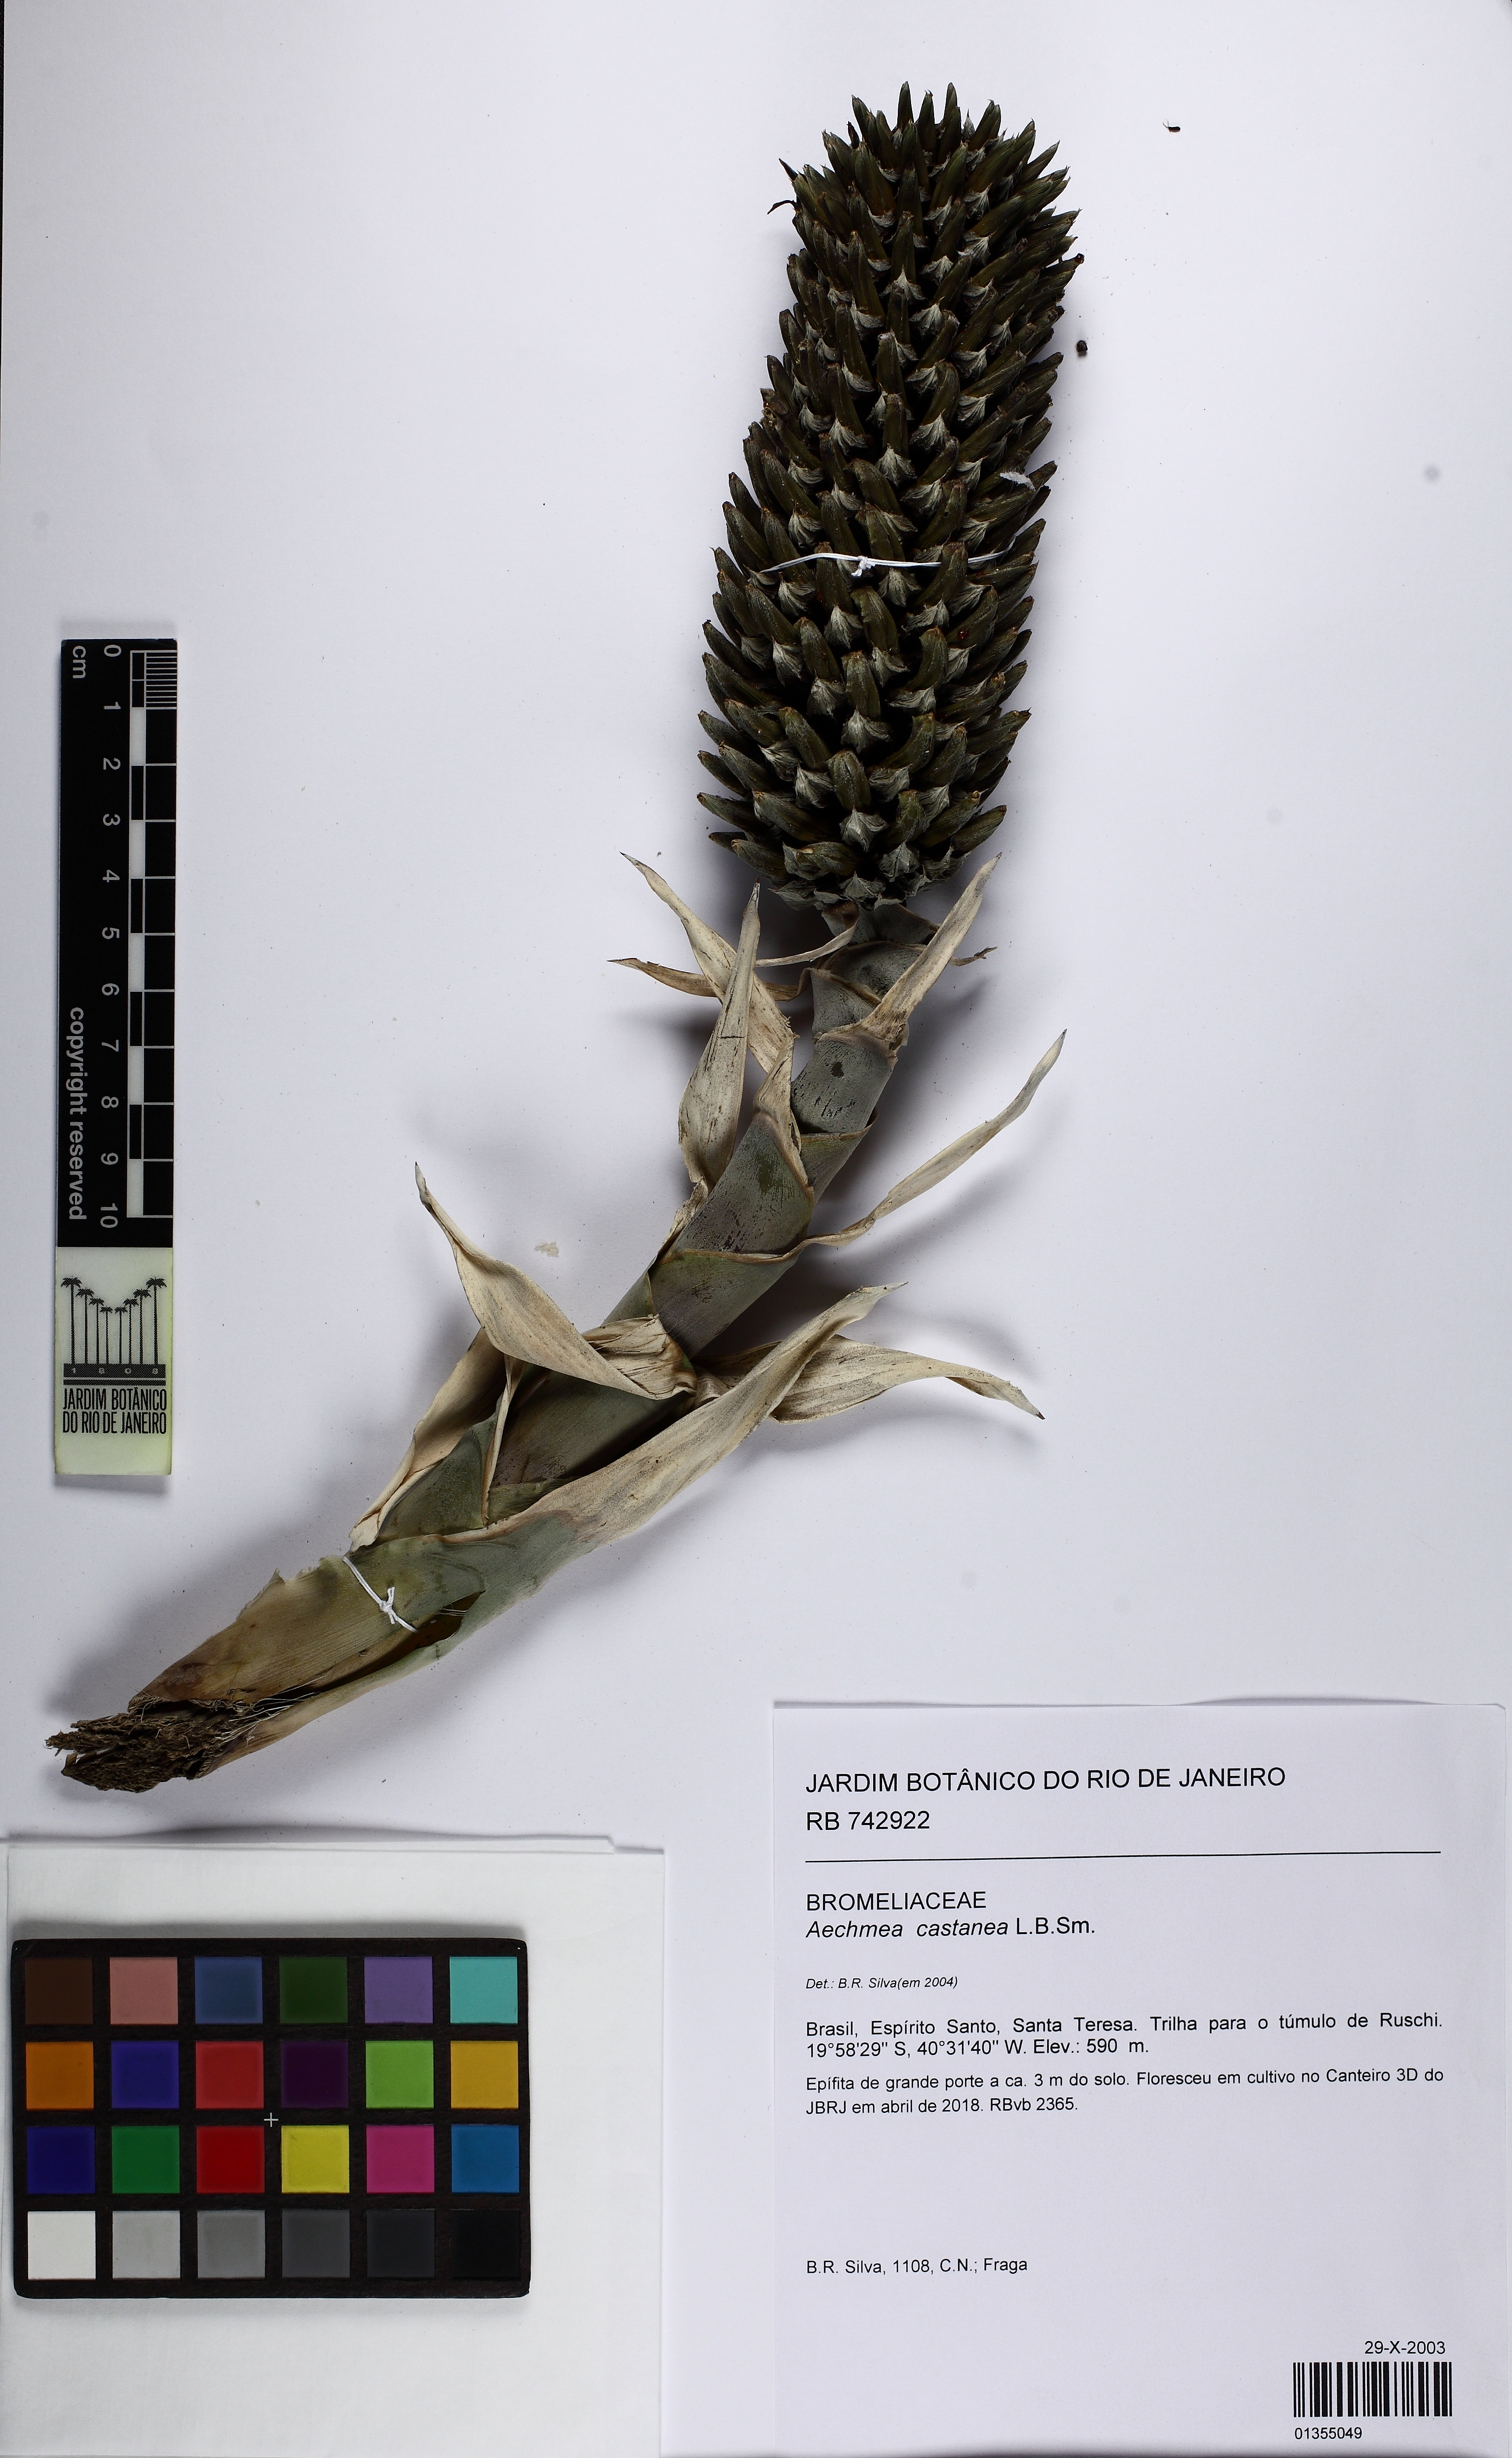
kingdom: Plantae
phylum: Tracheophyta
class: Liliopsida
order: Poales
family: Bromeliaceae
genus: Aechmea
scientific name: Aechmea castanea
